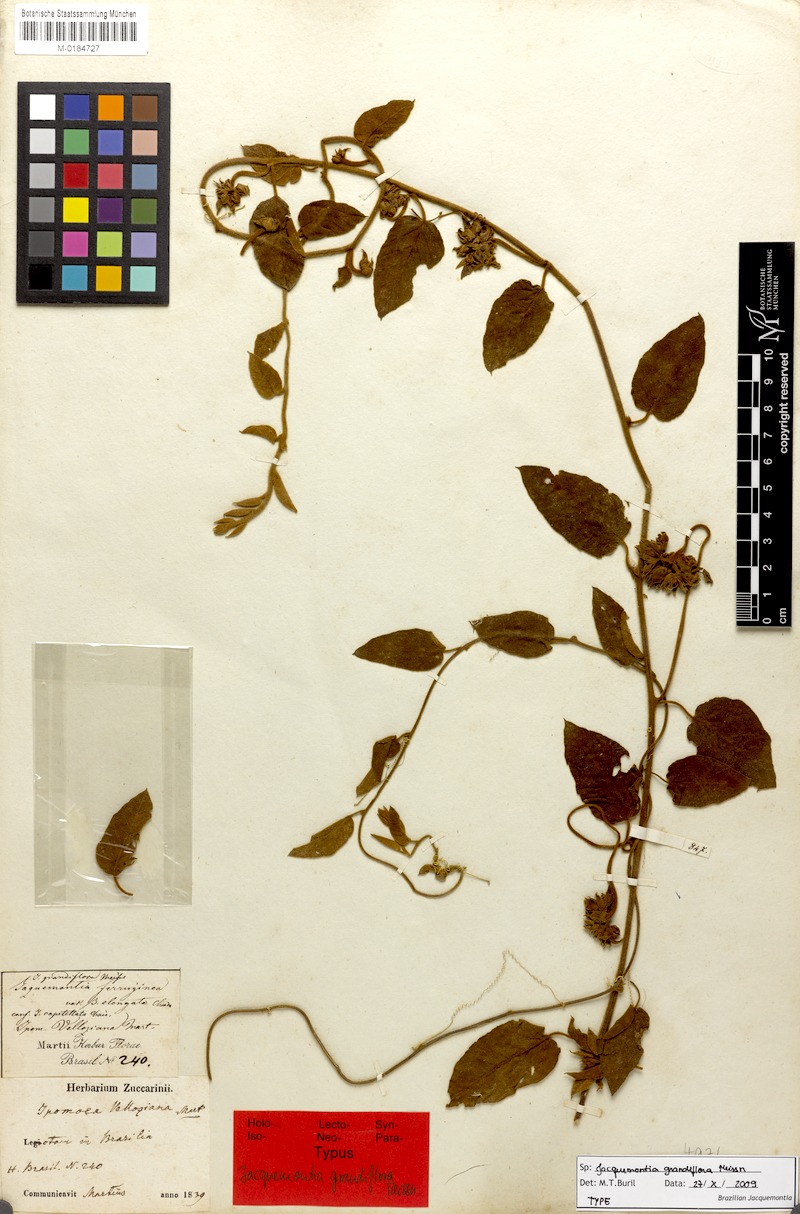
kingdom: Plantae
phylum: Tracheophyta
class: Magnoliopsida
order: Solanales
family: Convolvulaceae
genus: Jacquemontia
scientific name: Jacquemontia velloziana
